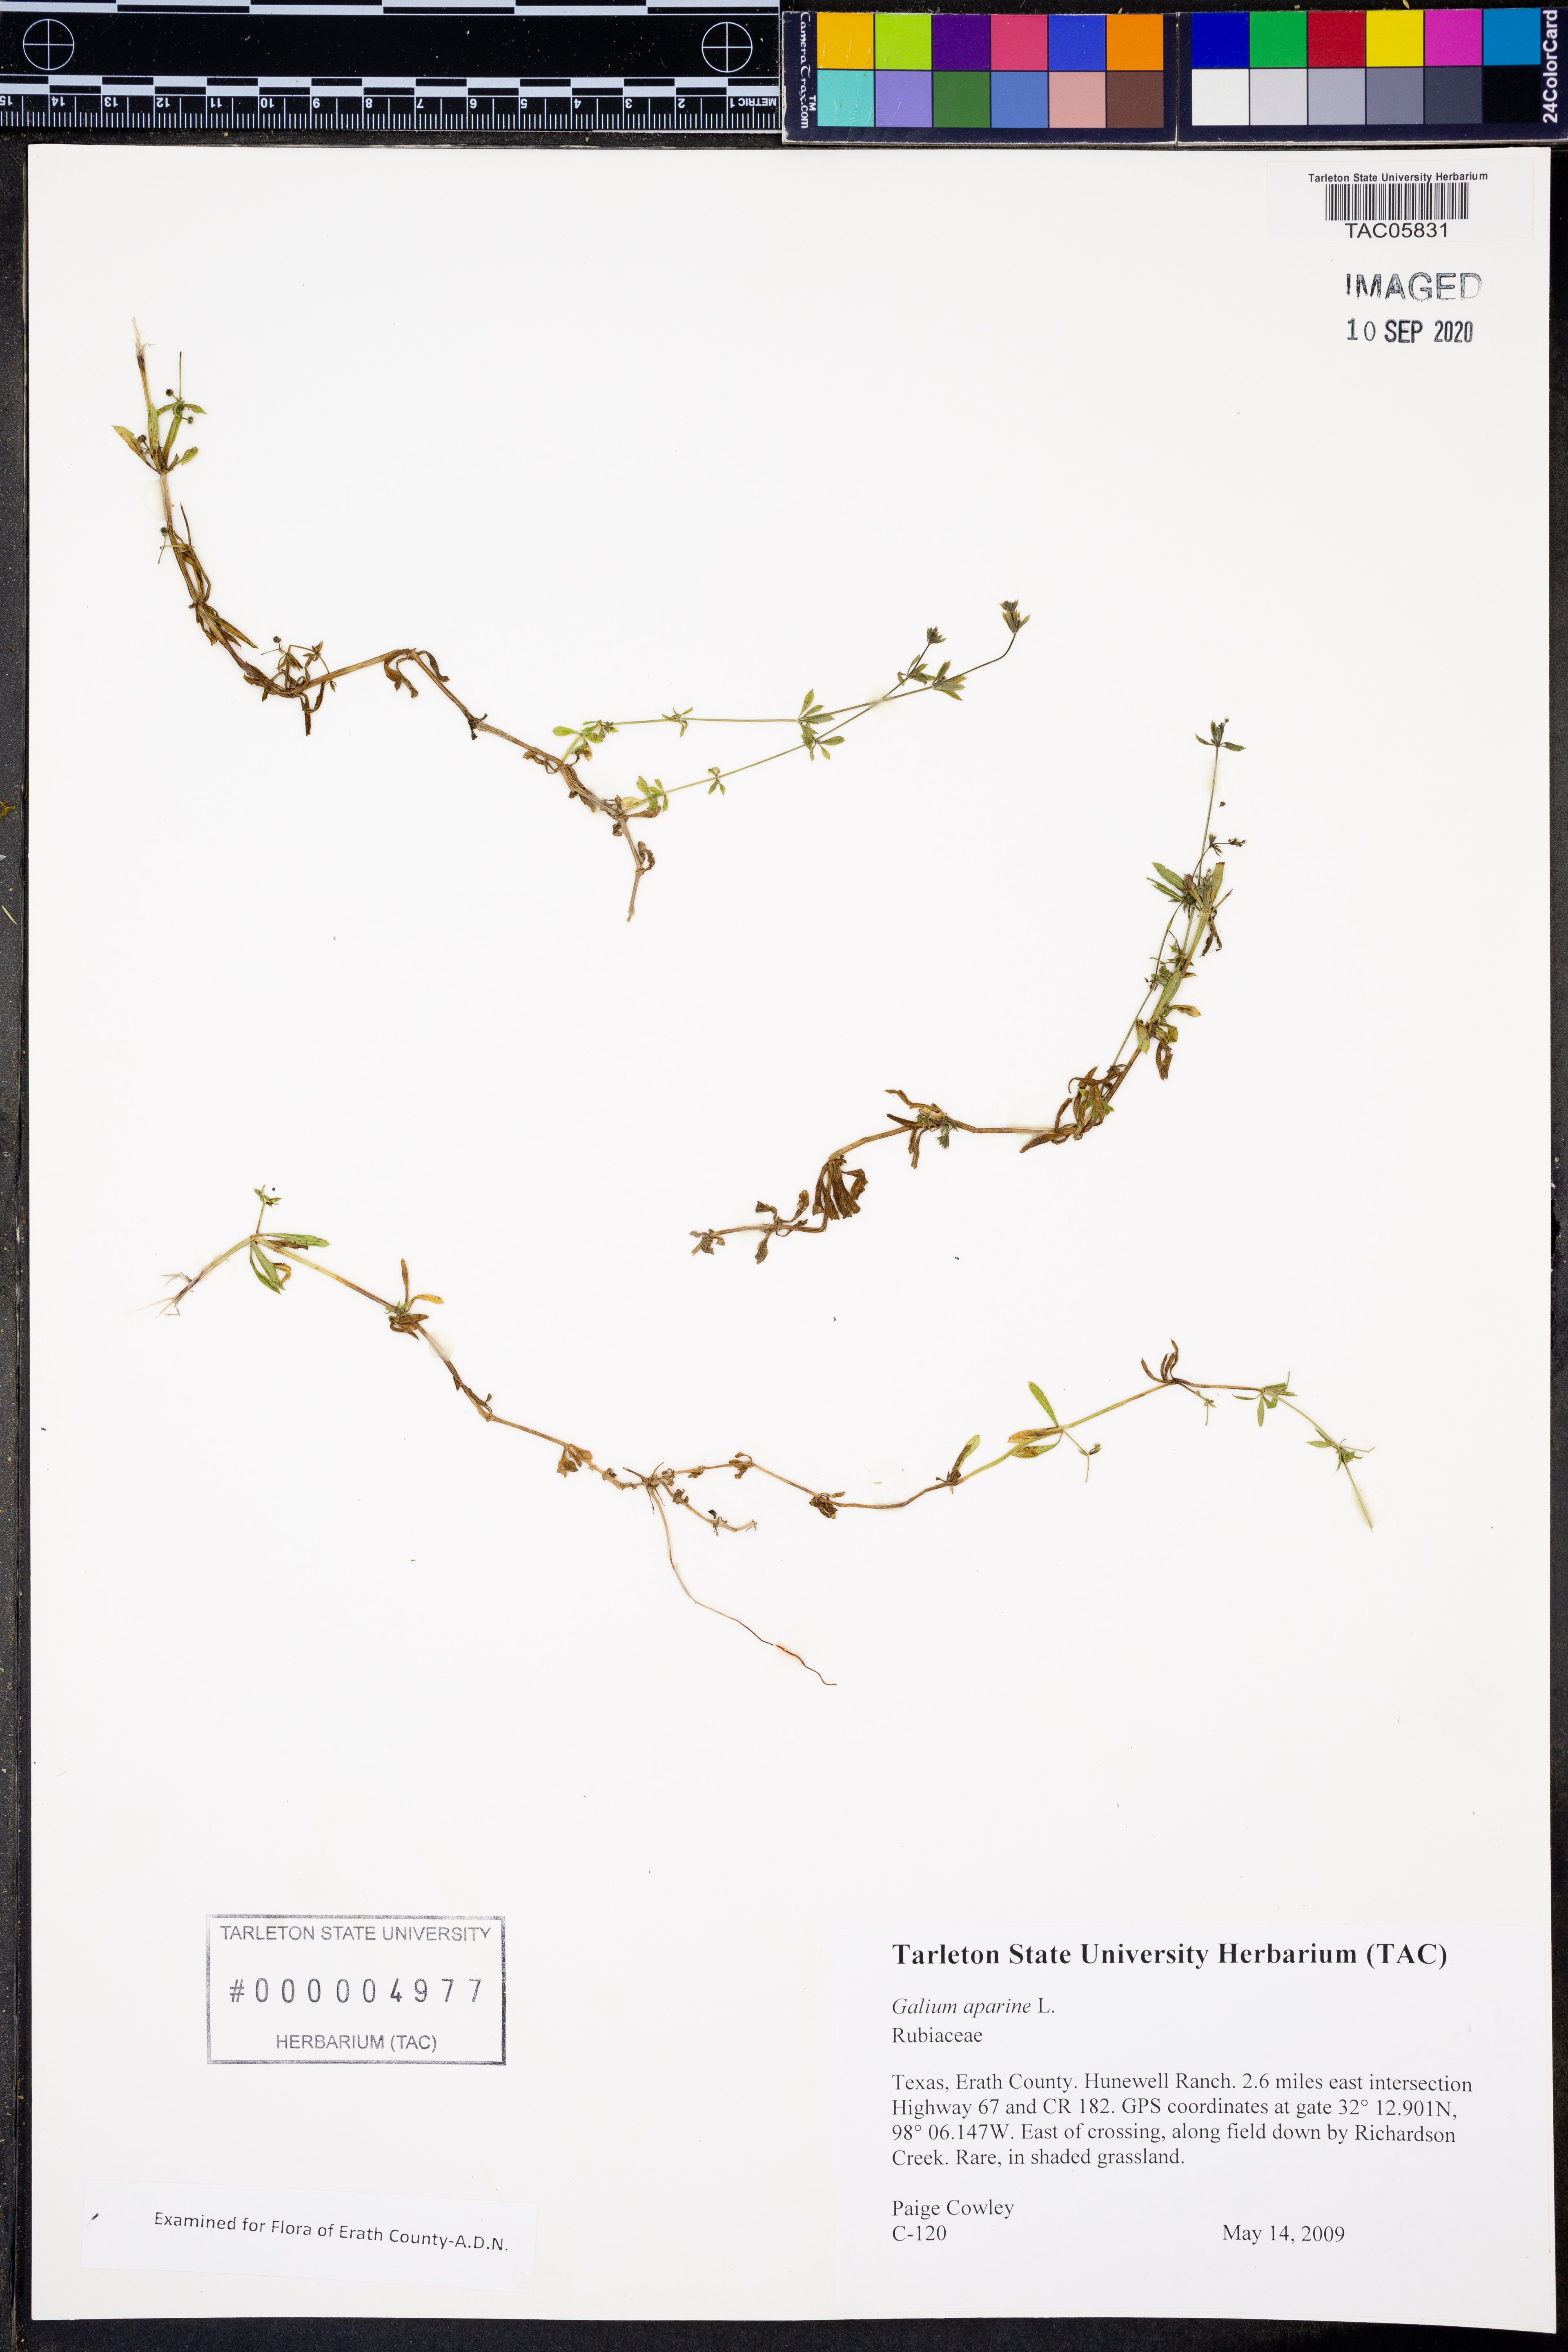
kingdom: Plantae
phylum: Tracheophyta
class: Magnoliopsida
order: Gentianales
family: Rubiaceae
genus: Galium
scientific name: Galium aparine
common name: Cleavers
